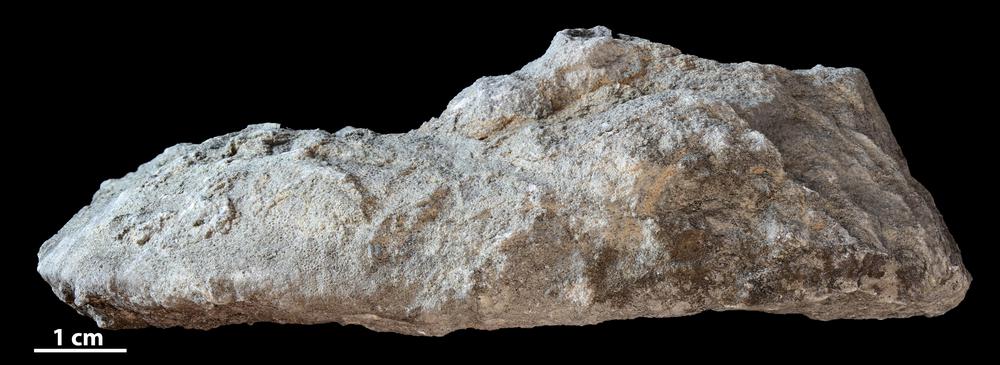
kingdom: Animalia
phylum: Bryozoa
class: Stenolaemata
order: Trepostomatida
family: Diplotrypidae
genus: Diplotrypa
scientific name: Diplotrypa
